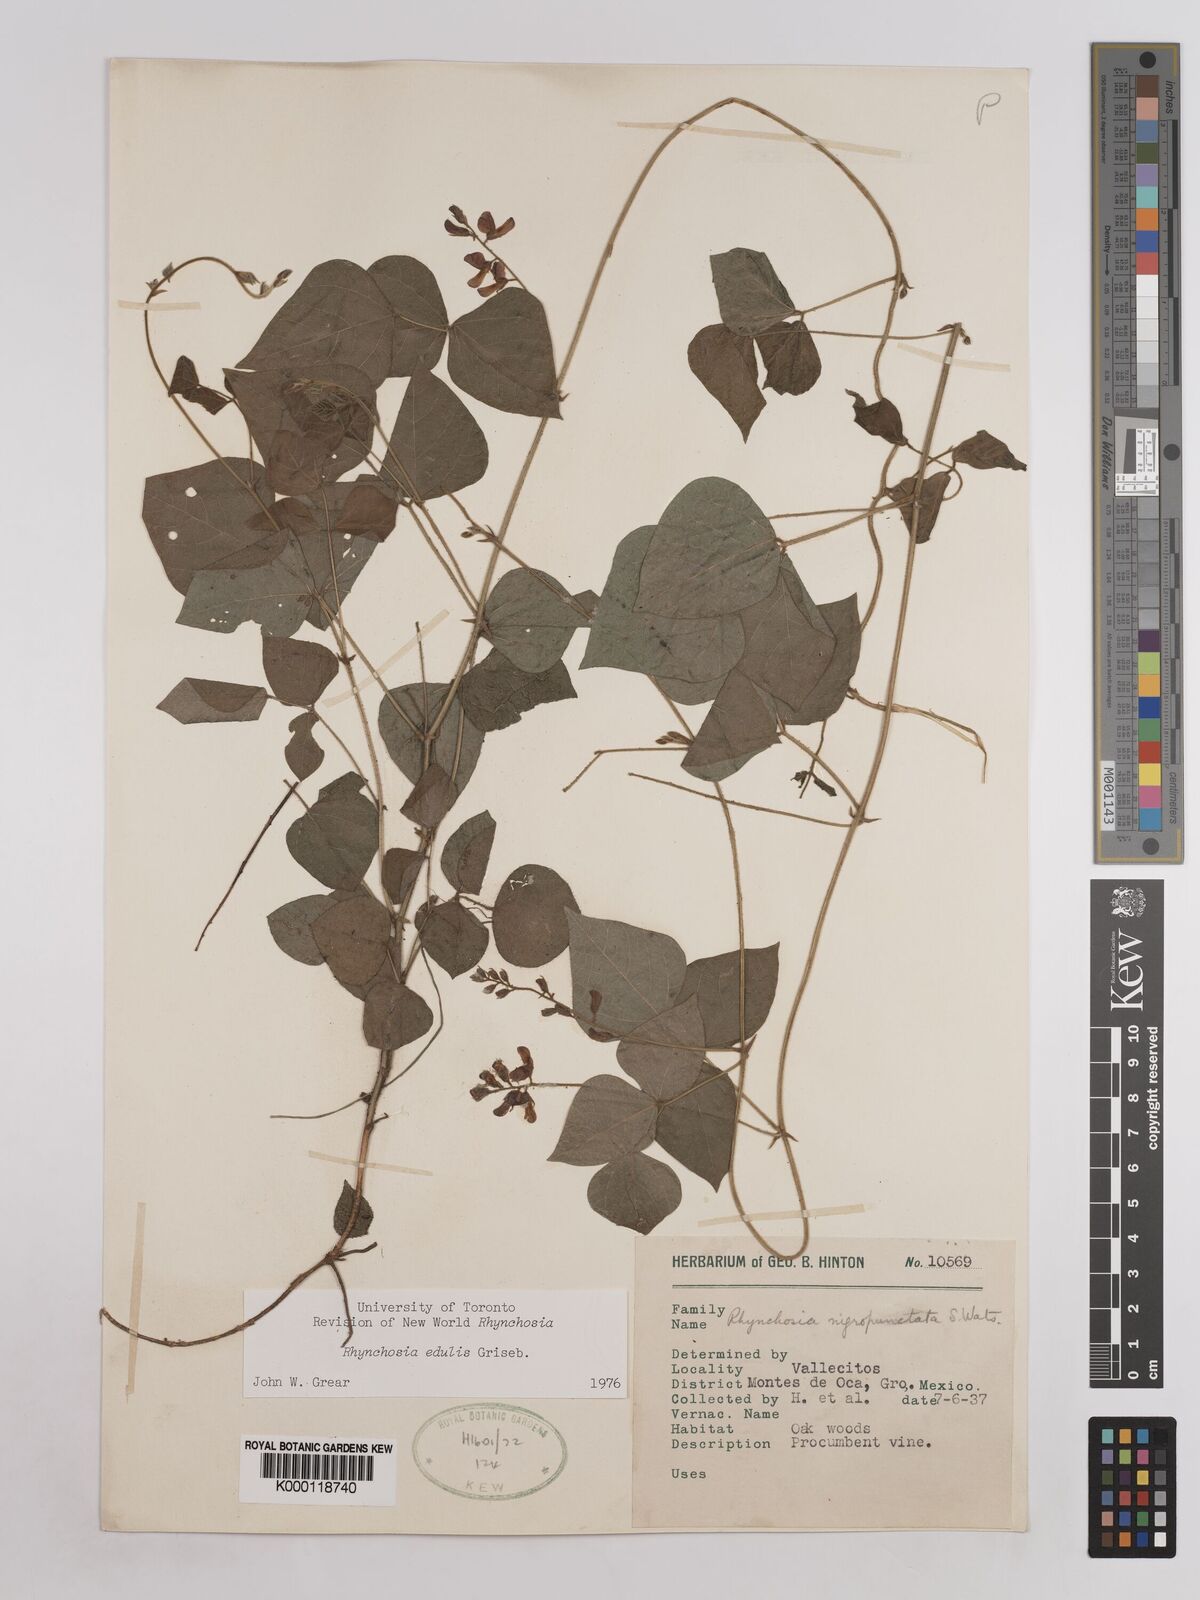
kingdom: Plantae
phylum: Tracheophyta
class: Magnoliopsida
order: Fabales
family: Fabaceae
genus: Rhynchosia
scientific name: Rhynchosia edulis
